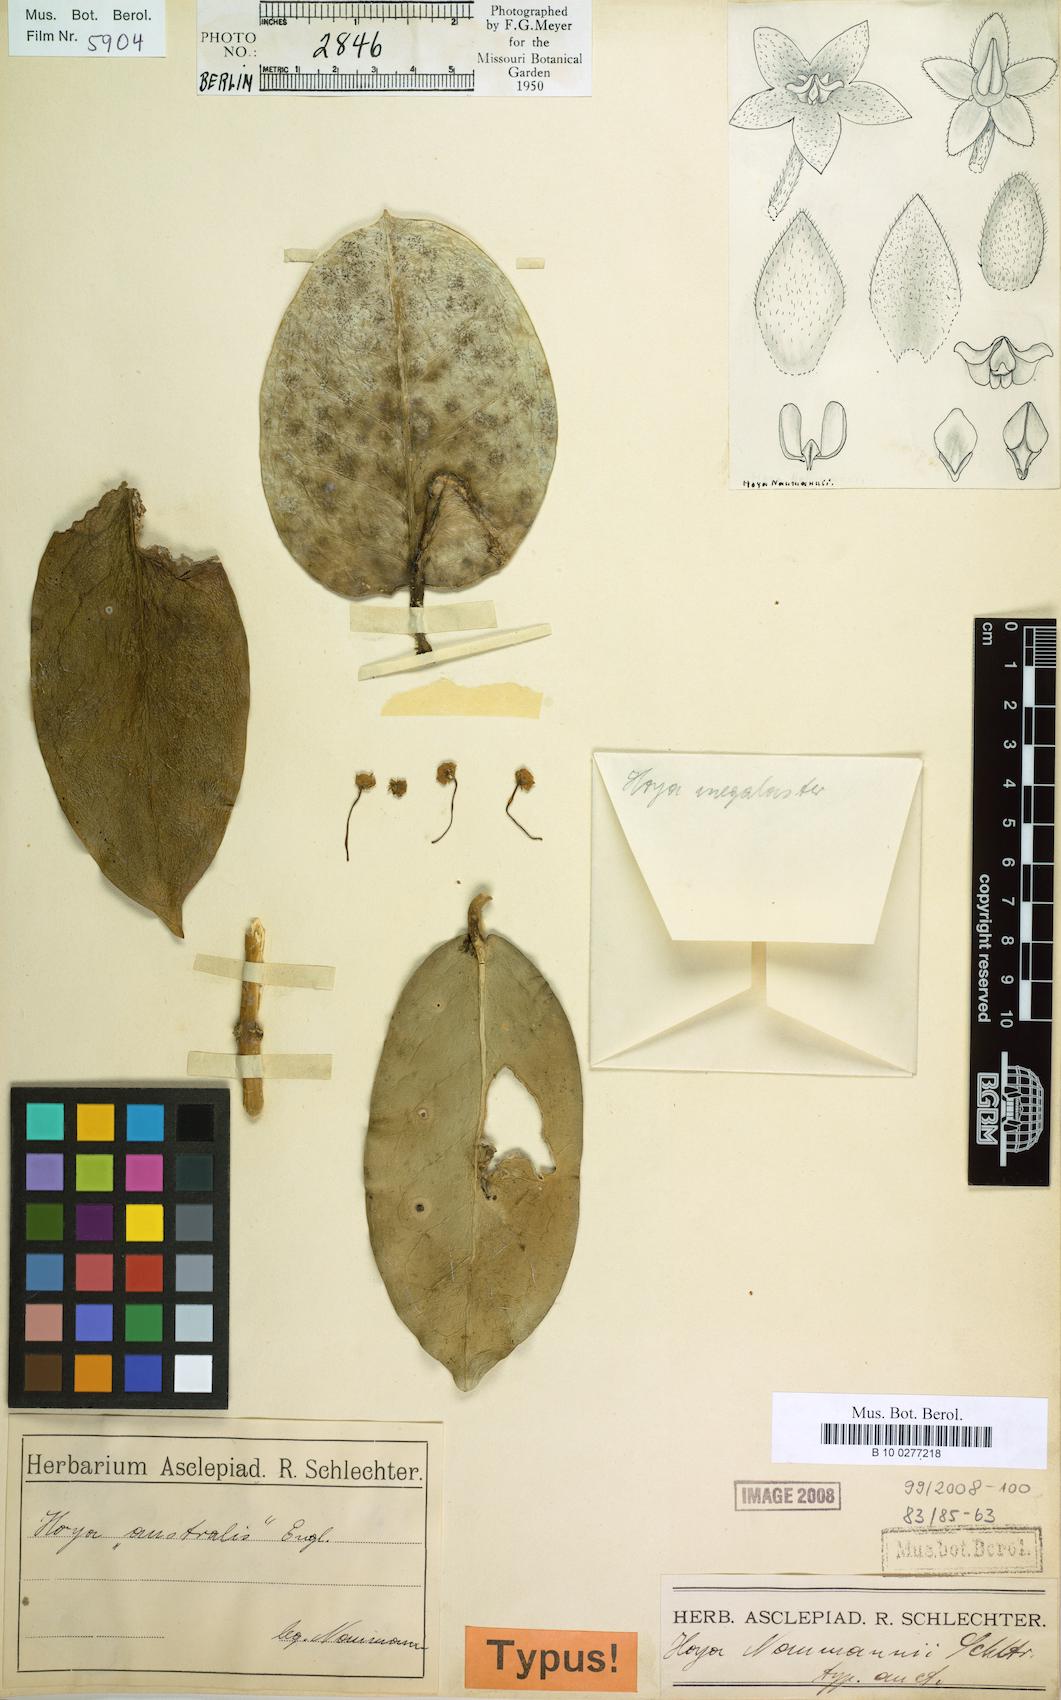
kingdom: Plantae
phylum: Tracheophyta
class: Magnoliopsida
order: Gentianales
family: Apocynaceae
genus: Hoya
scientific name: Hoya naumannii
